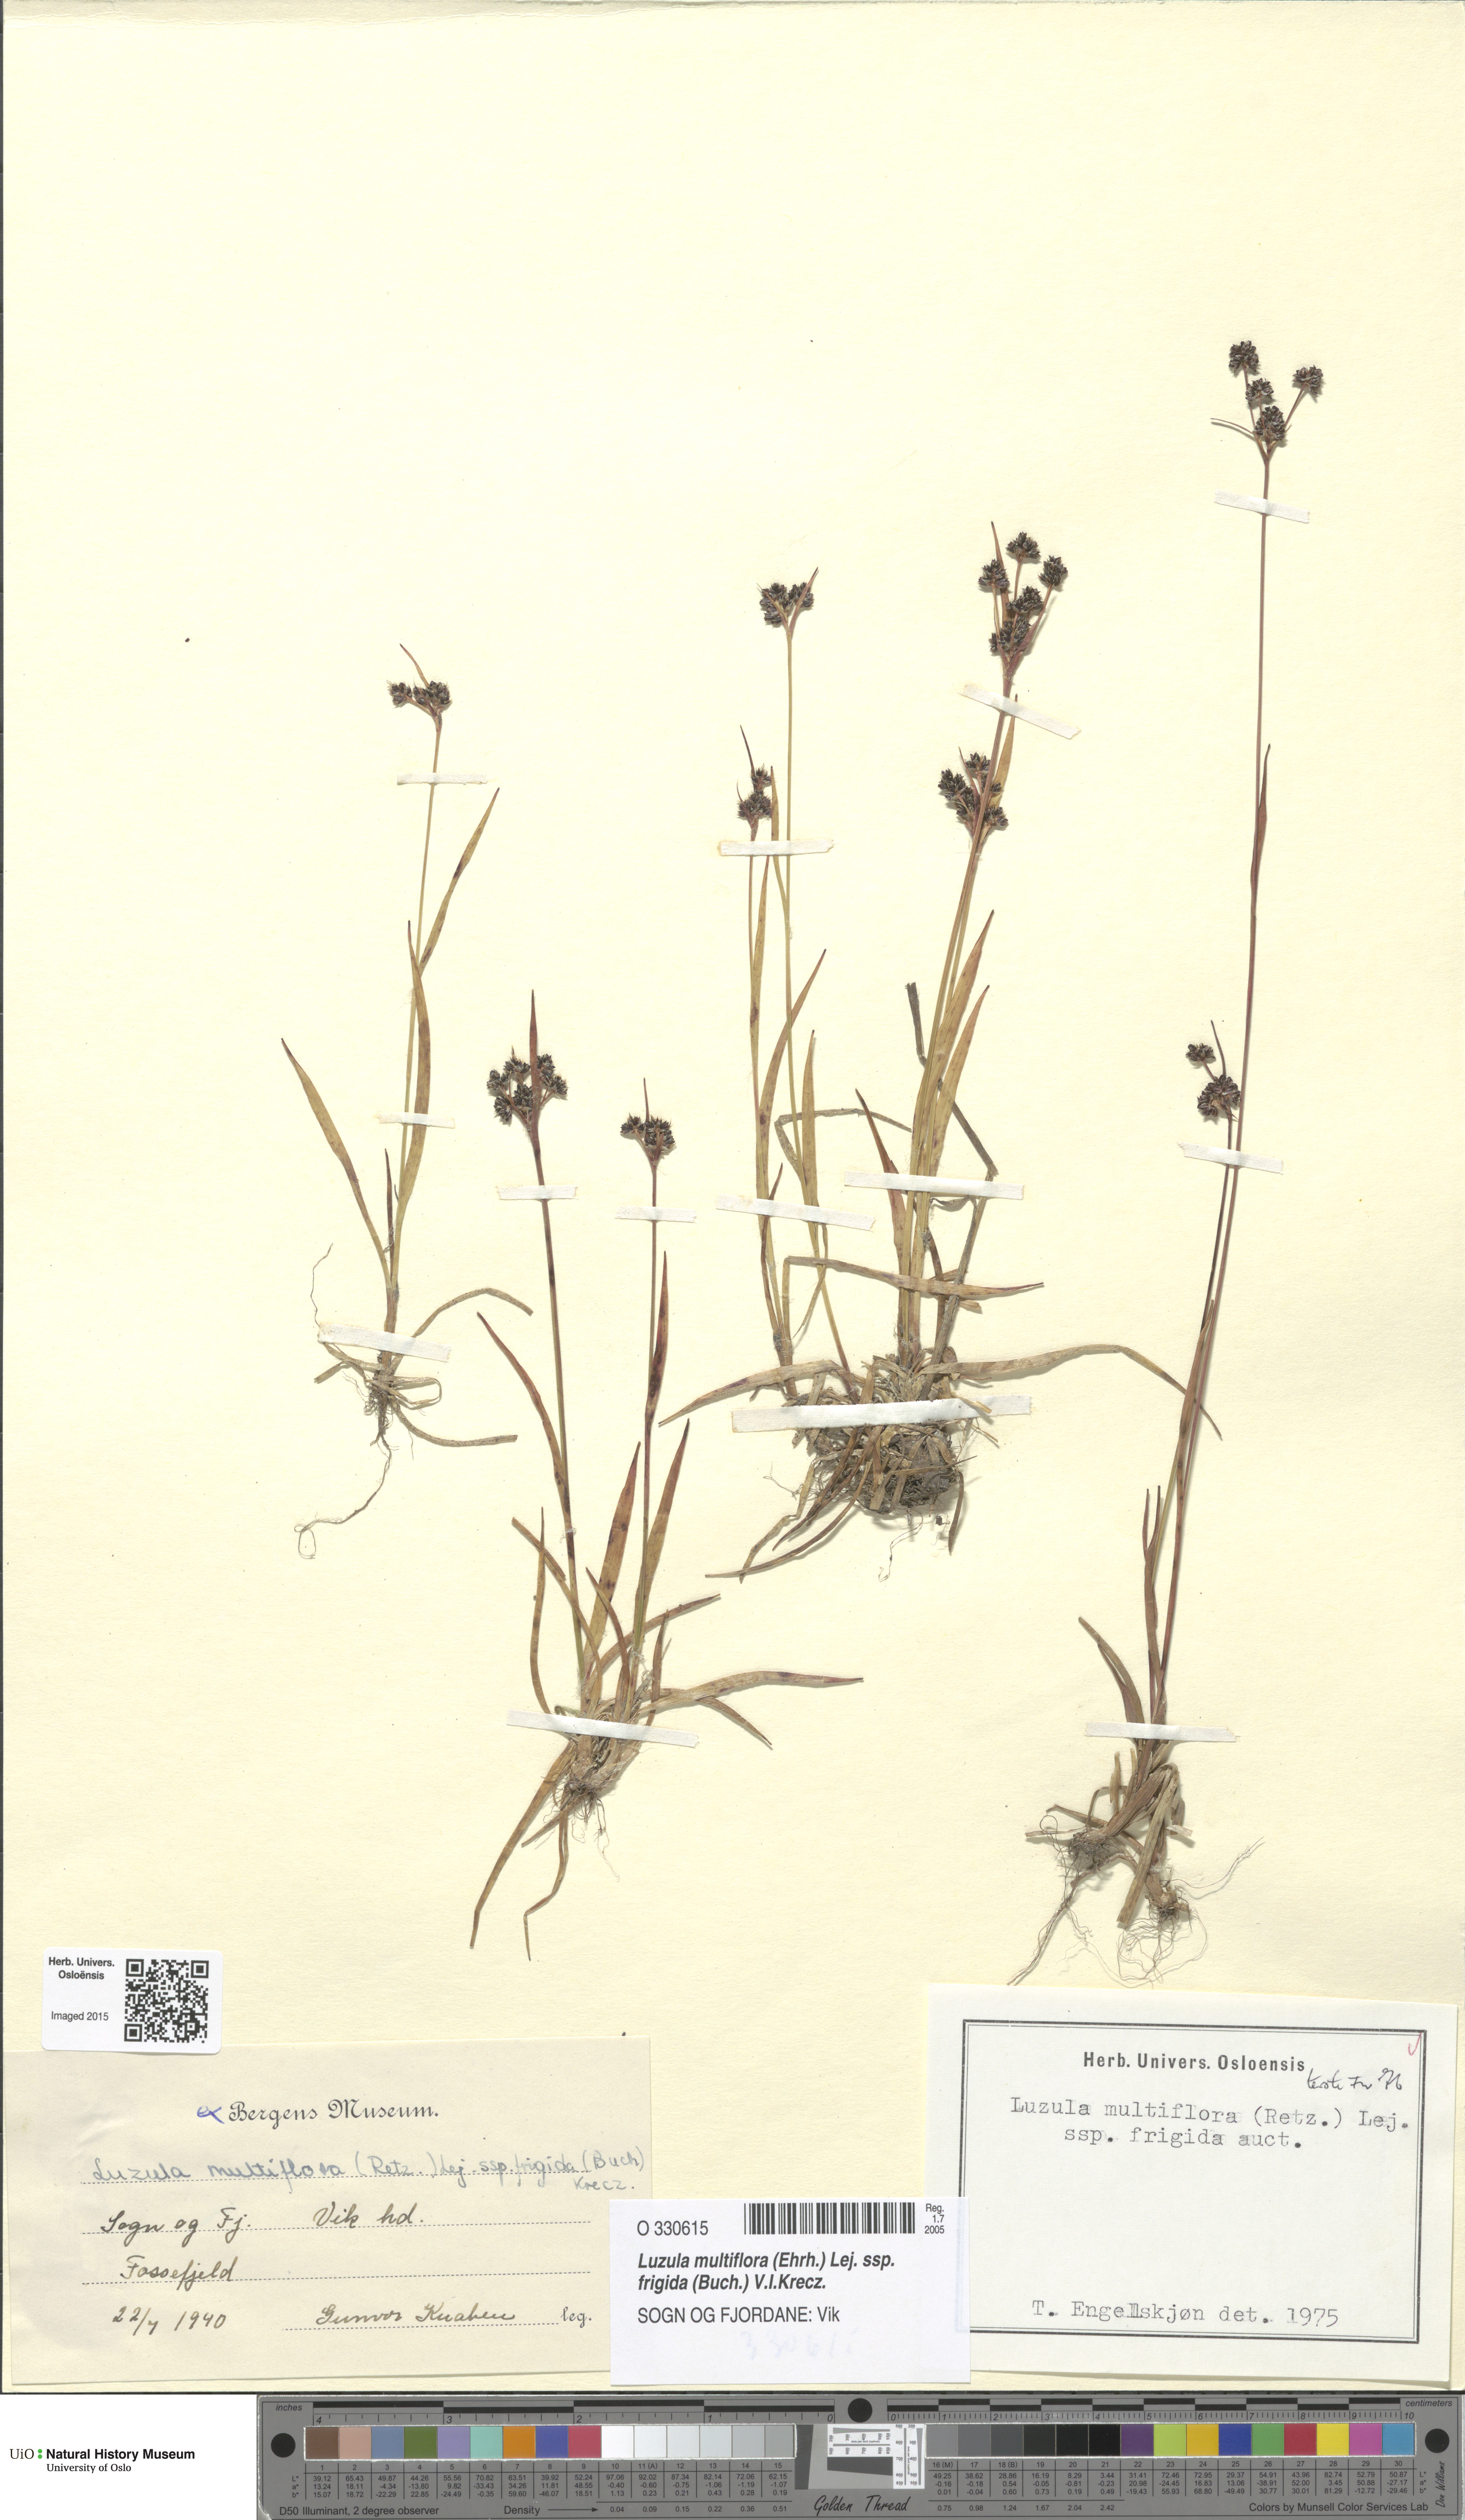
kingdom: Plantae
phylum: Tracheophyta
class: Liliopsida
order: Poales
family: Juncaceae
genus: Luzula
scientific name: Luzula multiflora
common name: Heath wood-rush
